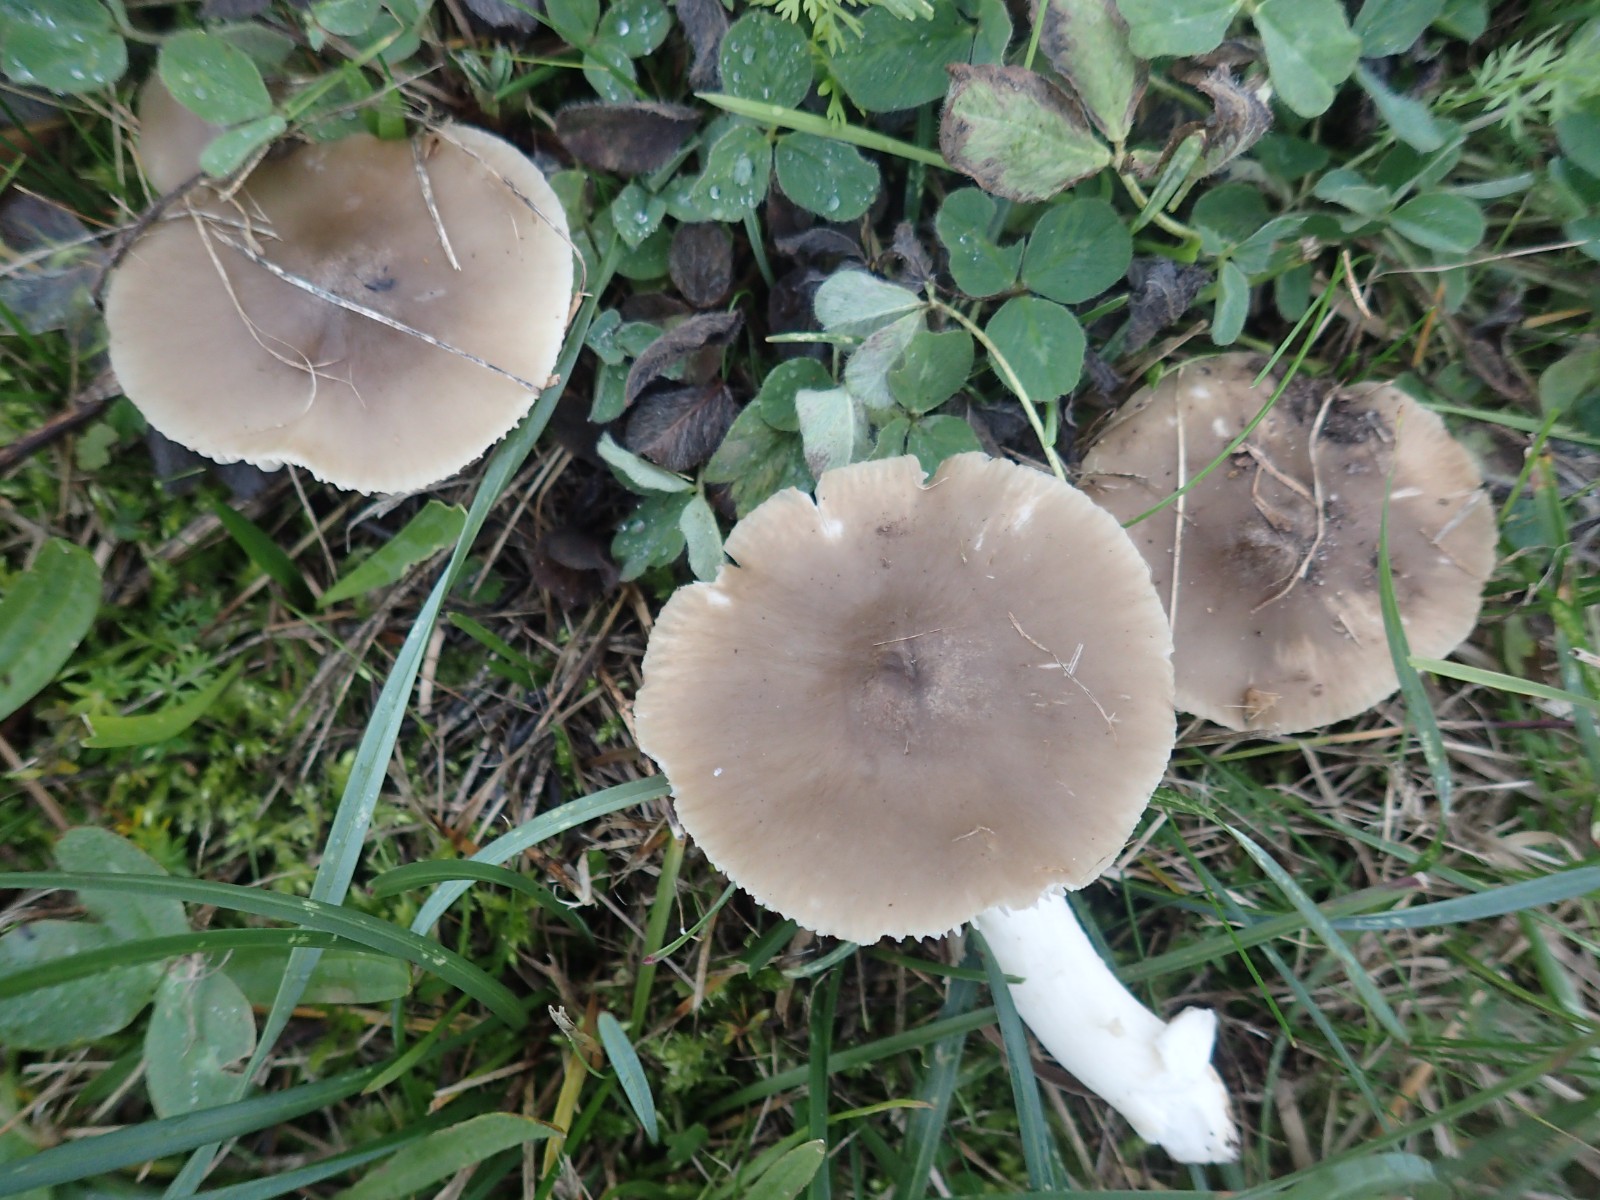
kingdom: Fungi
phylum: Basidiomycota
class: Agaricomycetes
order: Agaricales
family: Hygrophoraceae
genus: Cuphophyllus
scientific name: Cuphophyllus fornicatus
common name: gråbrun vokshat
